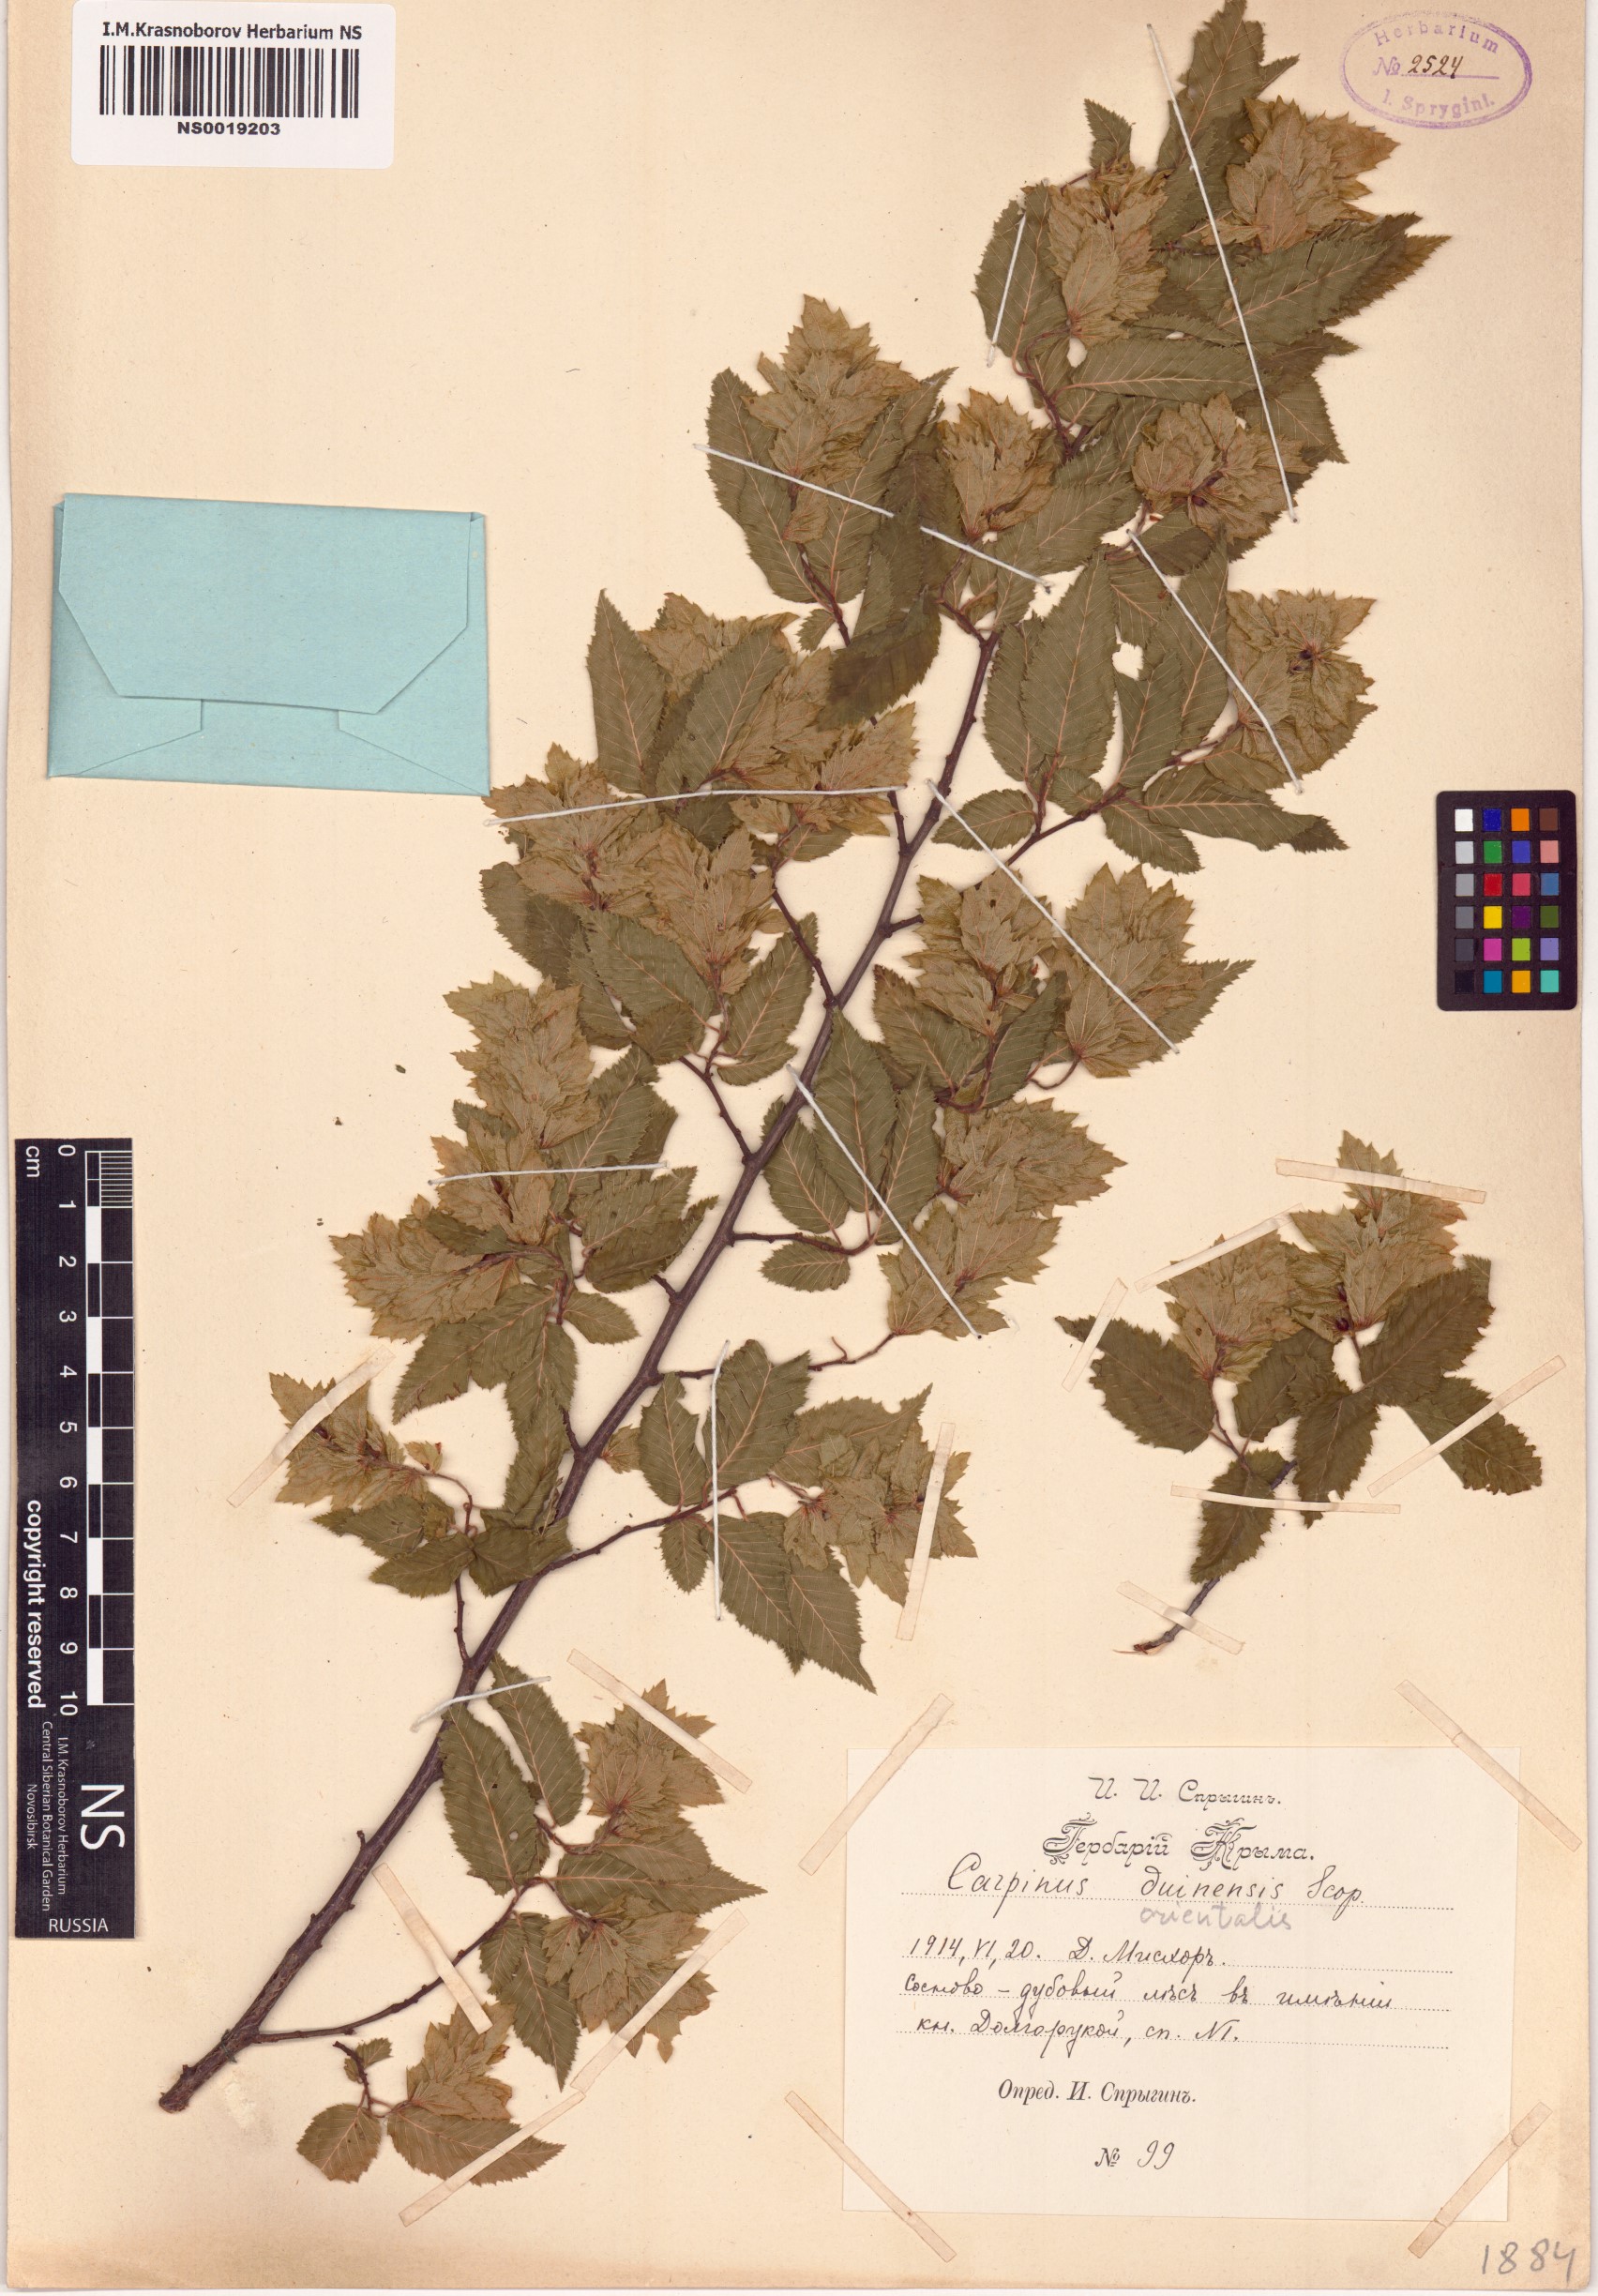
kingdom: Plantae
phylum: Tracheophyta
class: Magnoliopsida
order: Fagales
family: Betulaceae
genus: Carpinus
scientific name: Carpinus orientalis
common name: Eastern hornbeam
